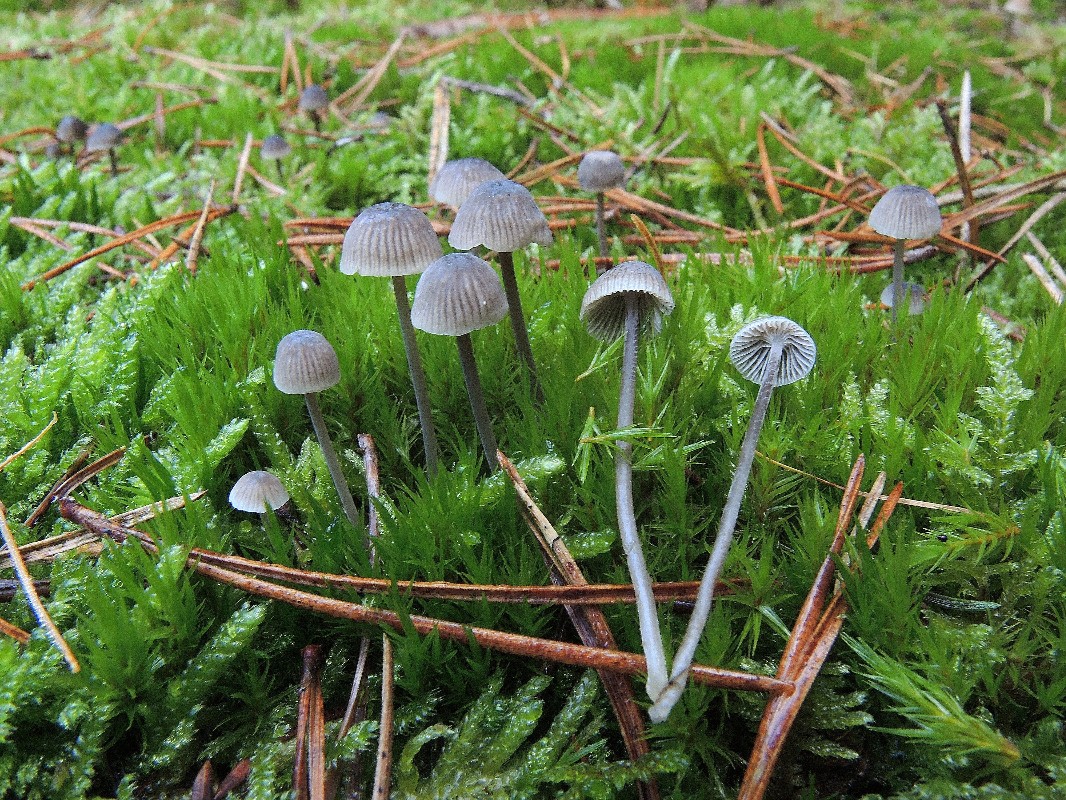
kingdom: Fungi
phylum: Basidiomycota
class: Agaricomycetes
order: Agaricales
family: Mycenaceae
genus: Mycena
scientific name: Mycena vulgaris
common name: klæbrig huesvamp
